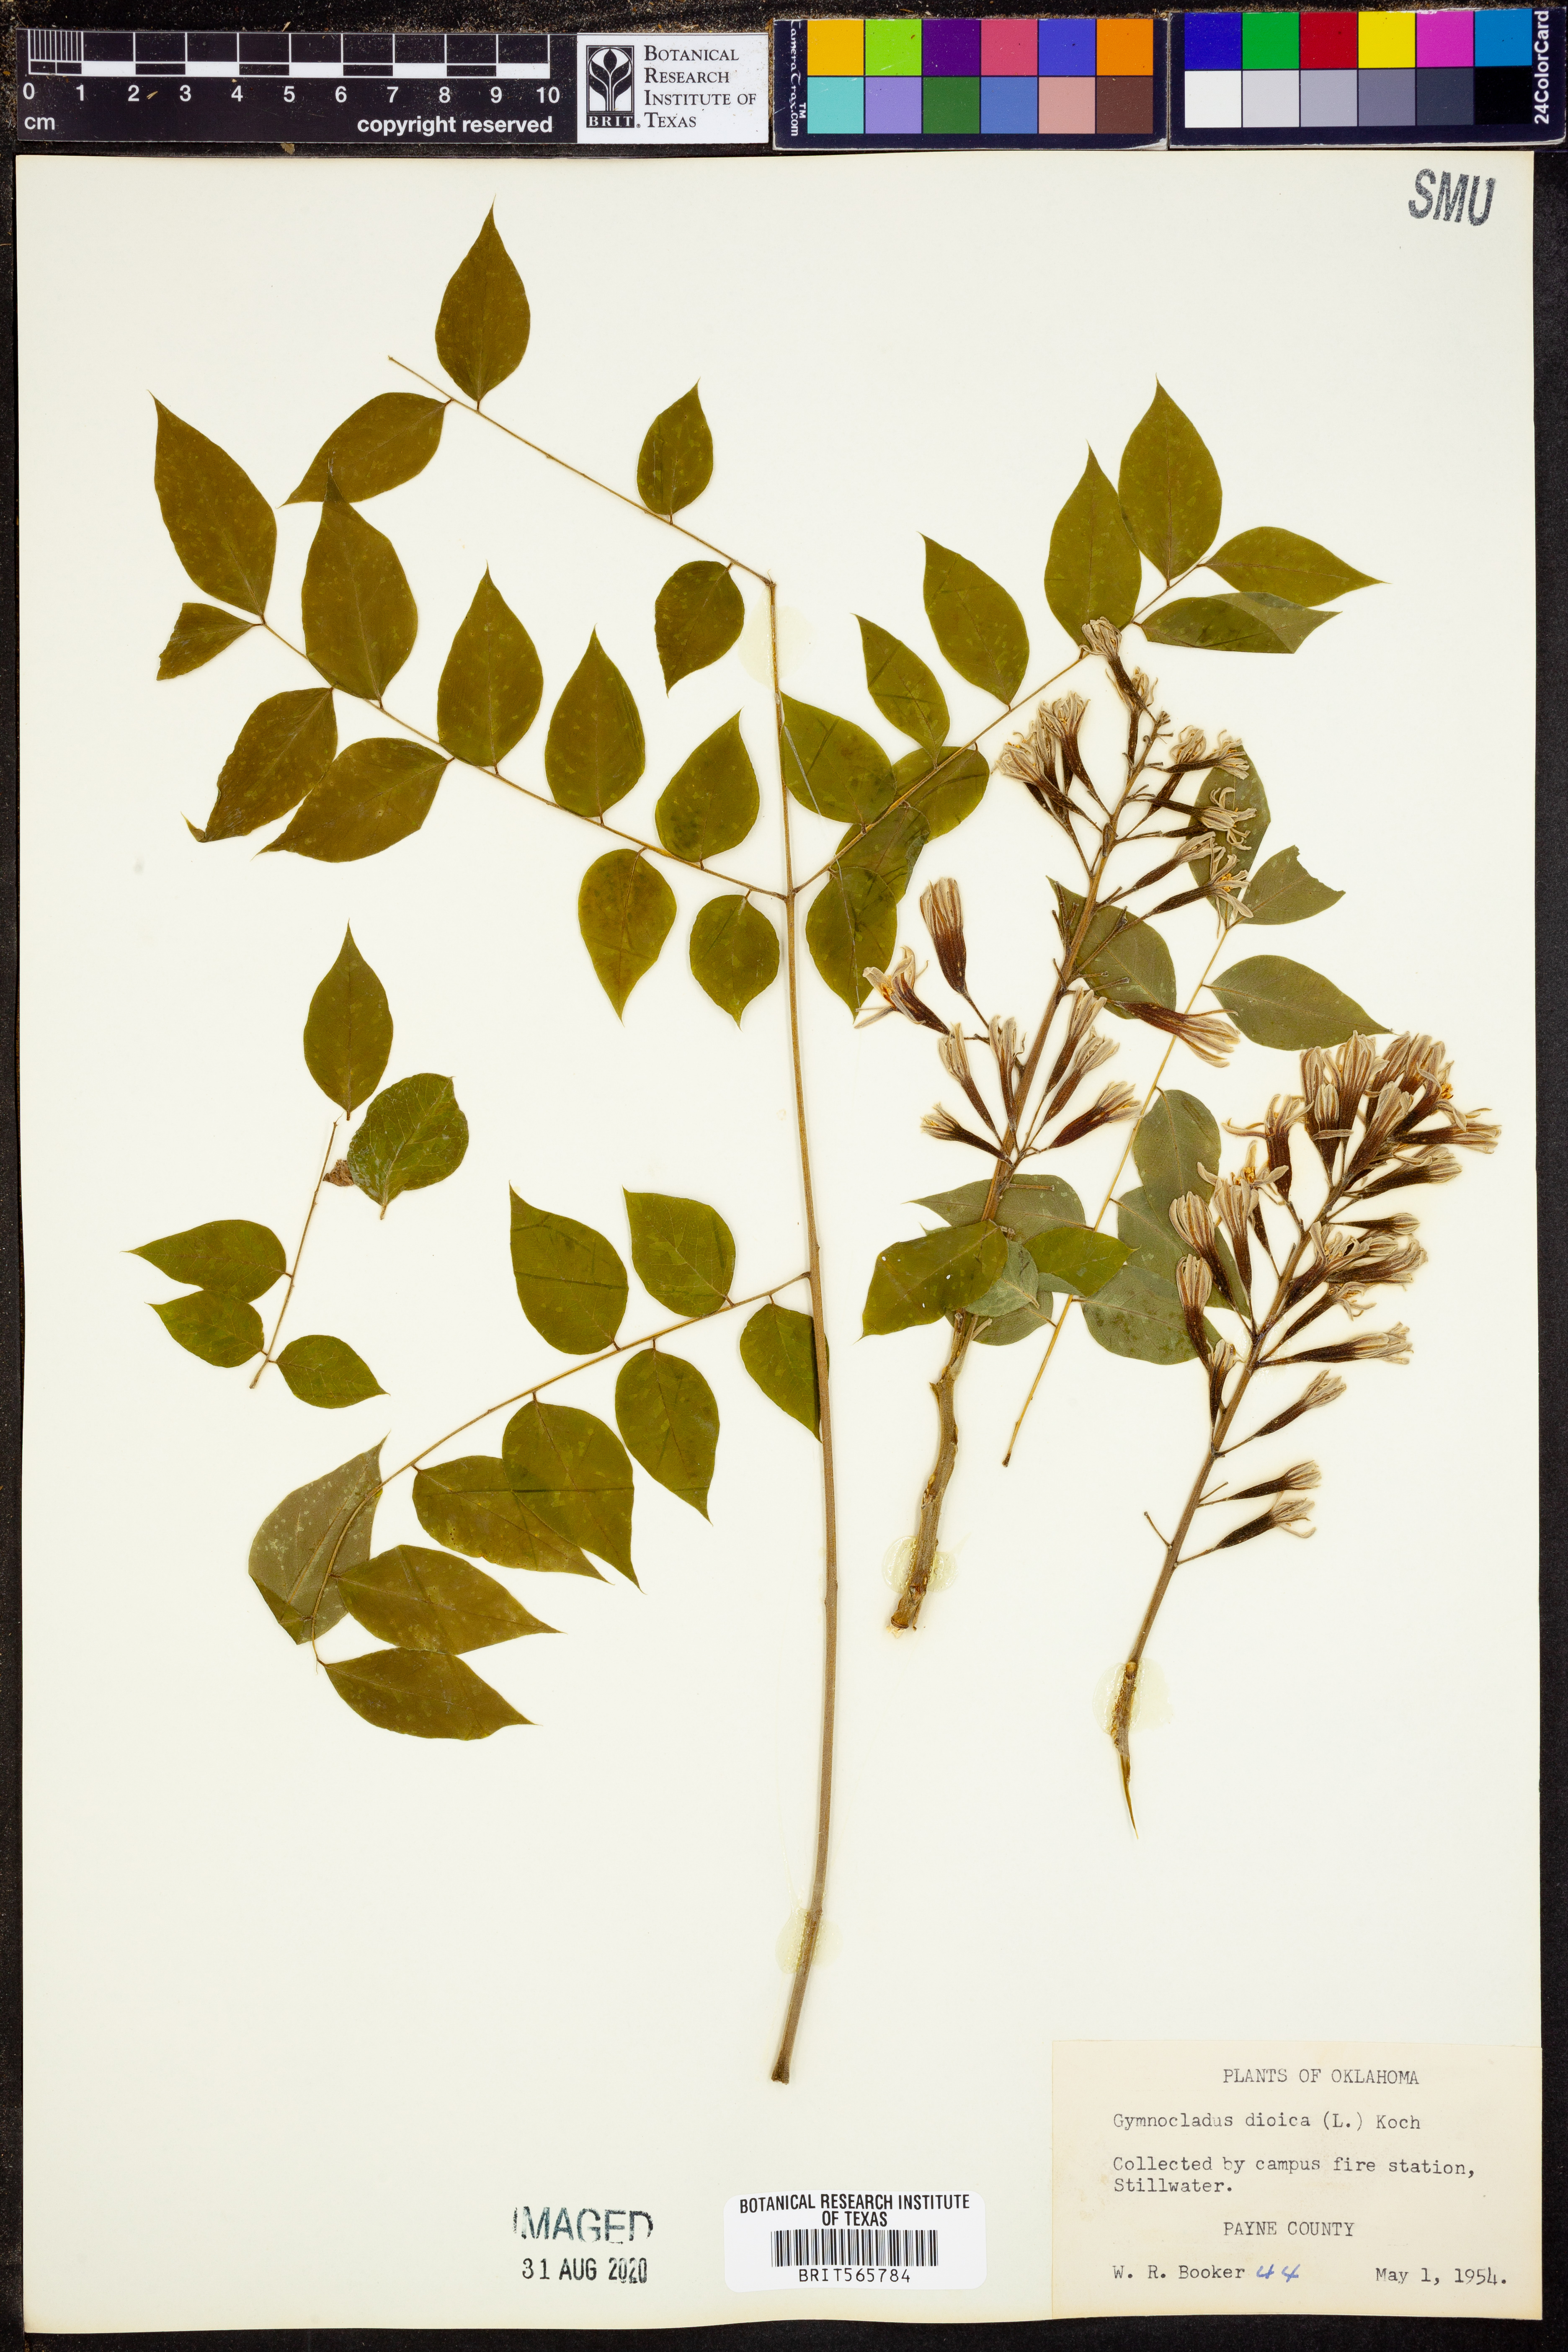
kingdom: Plantae
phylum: Tracheophyta
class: Magnoliopsida
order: Fabales
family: Fabaceae
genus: Gymnocladus
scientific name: Gymnocladus dioicus
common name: Kentucky coffee-tree
